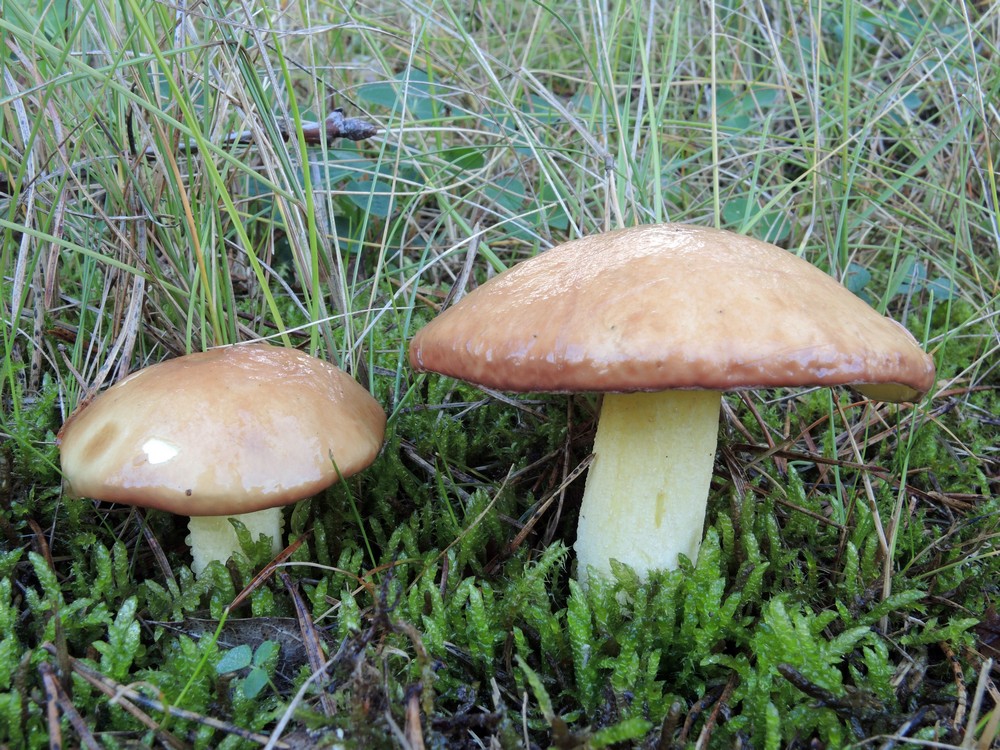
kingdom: Fungi
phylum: Basidiomycota
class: Agaricomycetes
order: Boletales
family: Suillaceae
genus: Suillus
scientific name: Suillus granulatus
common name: kornet slimrørhat
